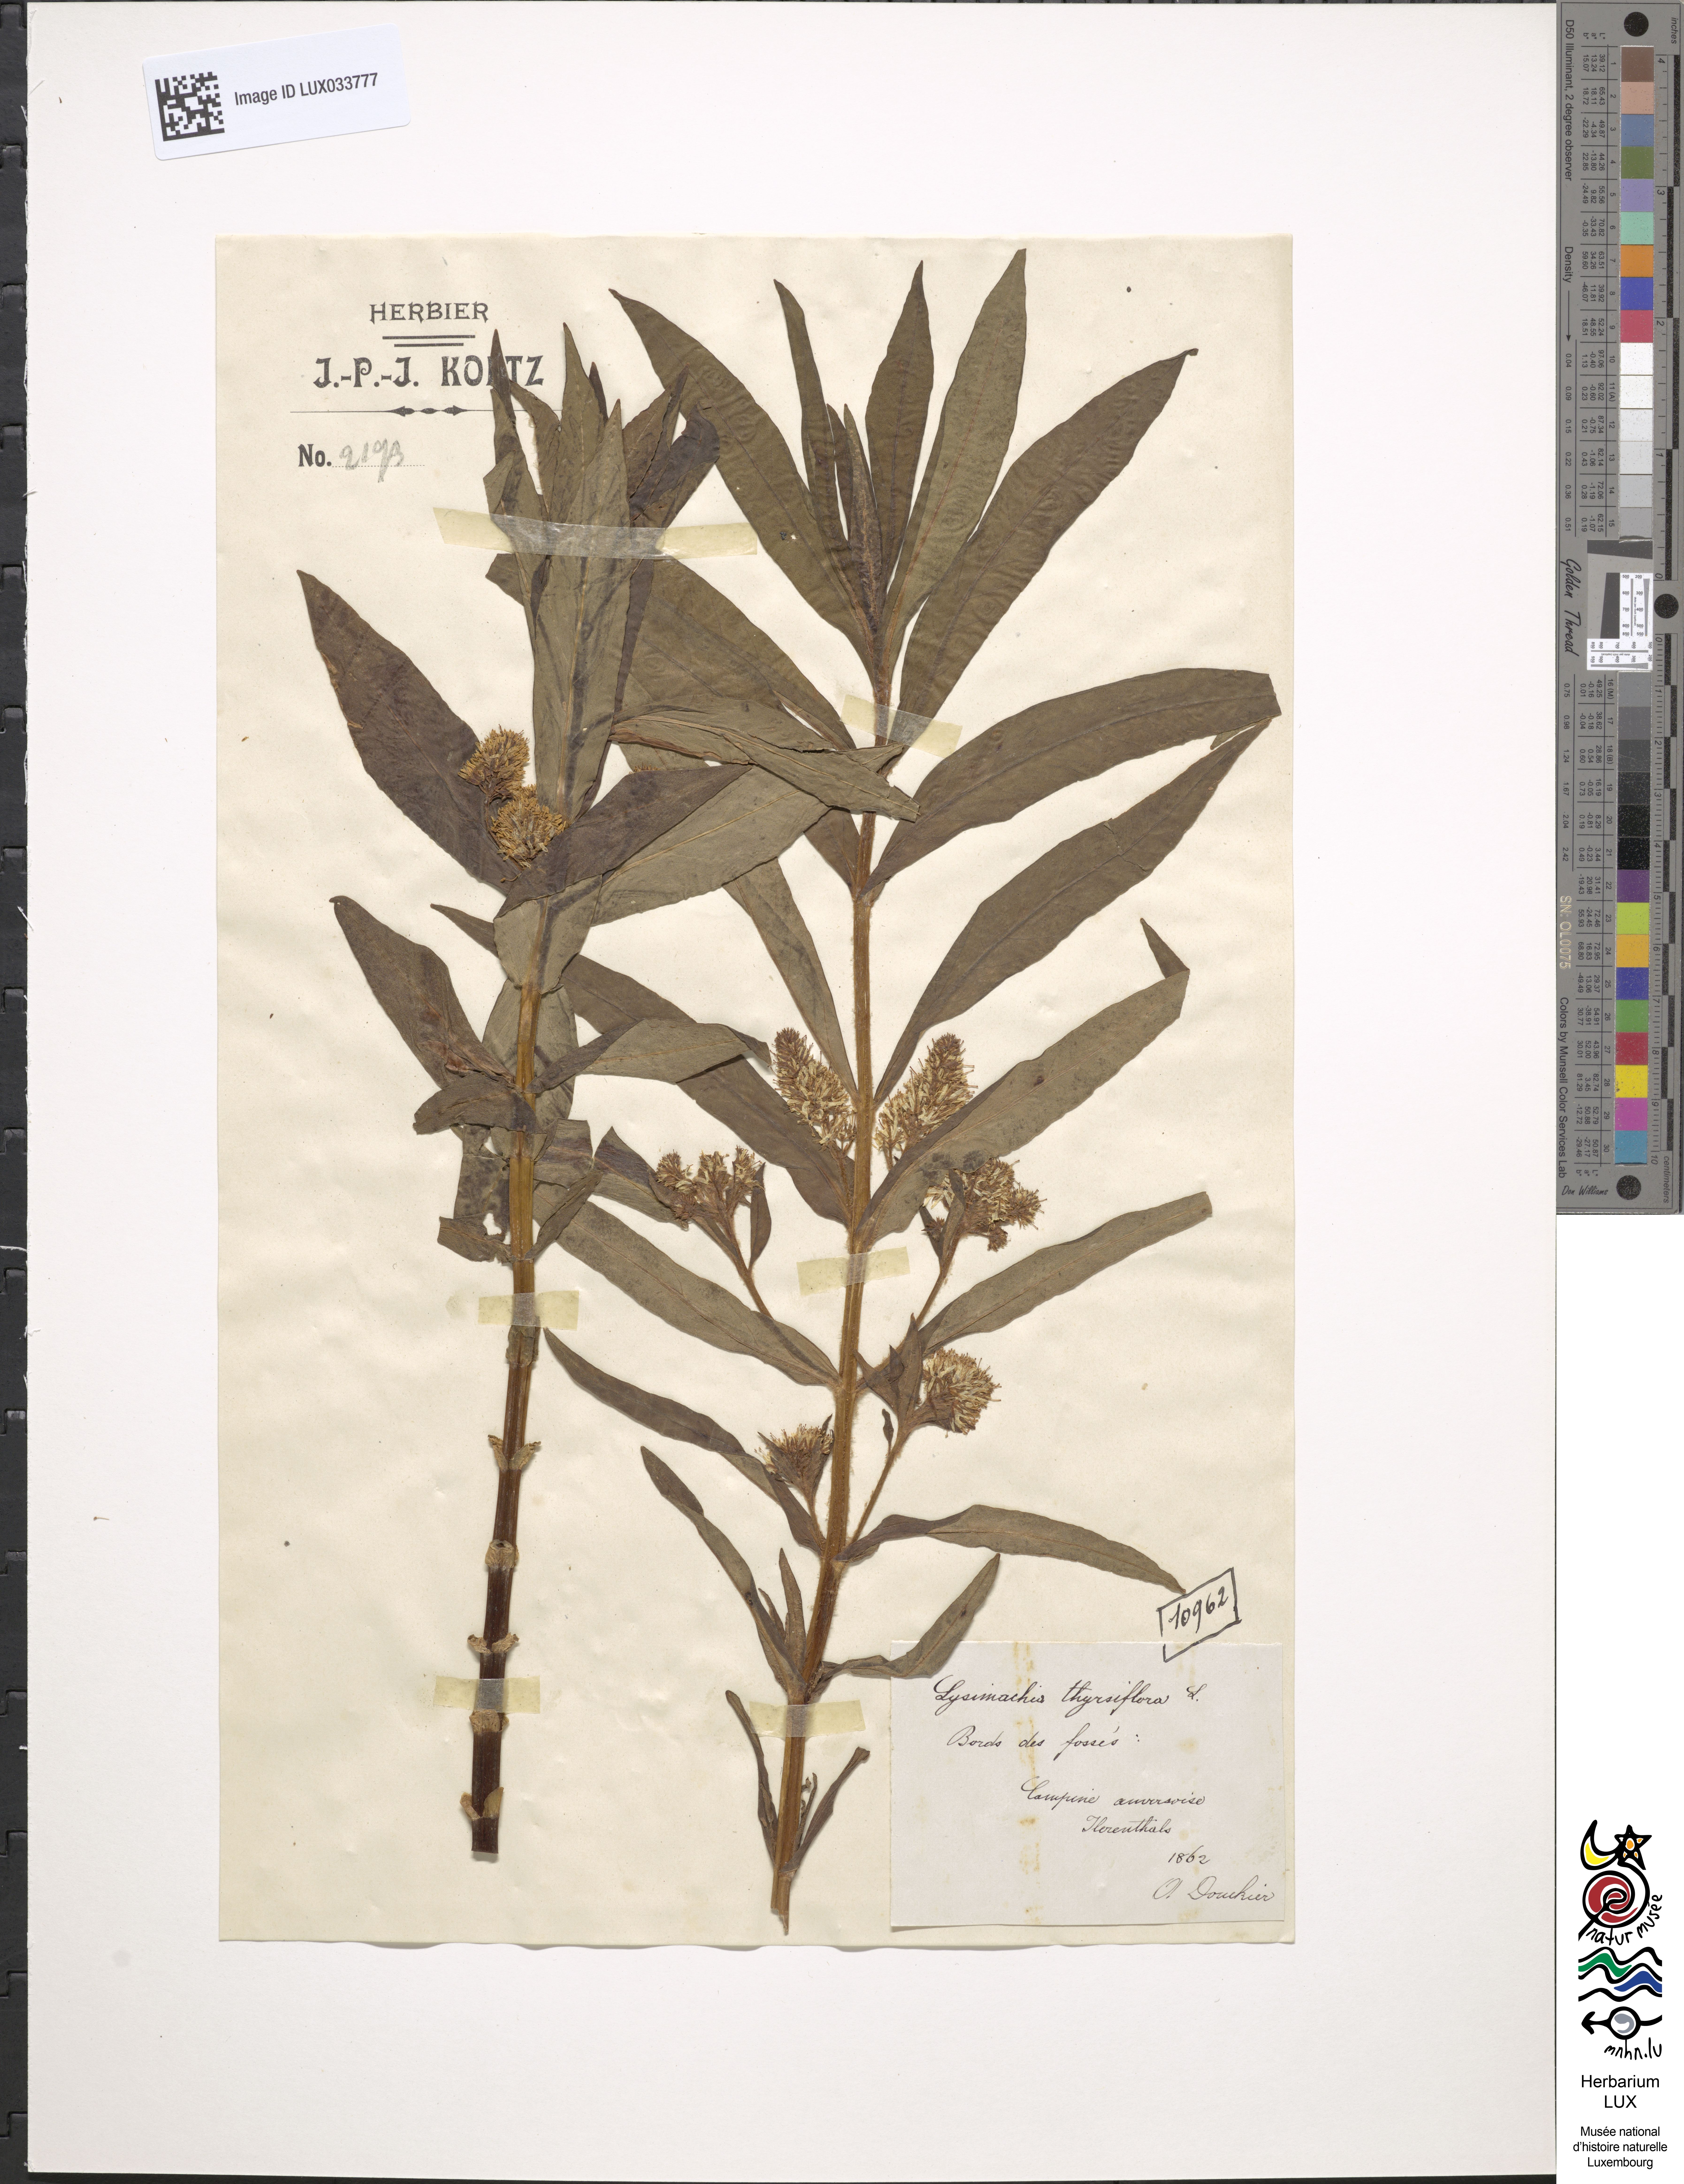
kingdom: Plantae
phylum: Tracheophyta
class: Magnoliopsida
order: Ericales
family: Primulaceae
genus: Lysimachia
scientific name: Lysimachia thyrsiflora
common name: Tufted loosestrife
